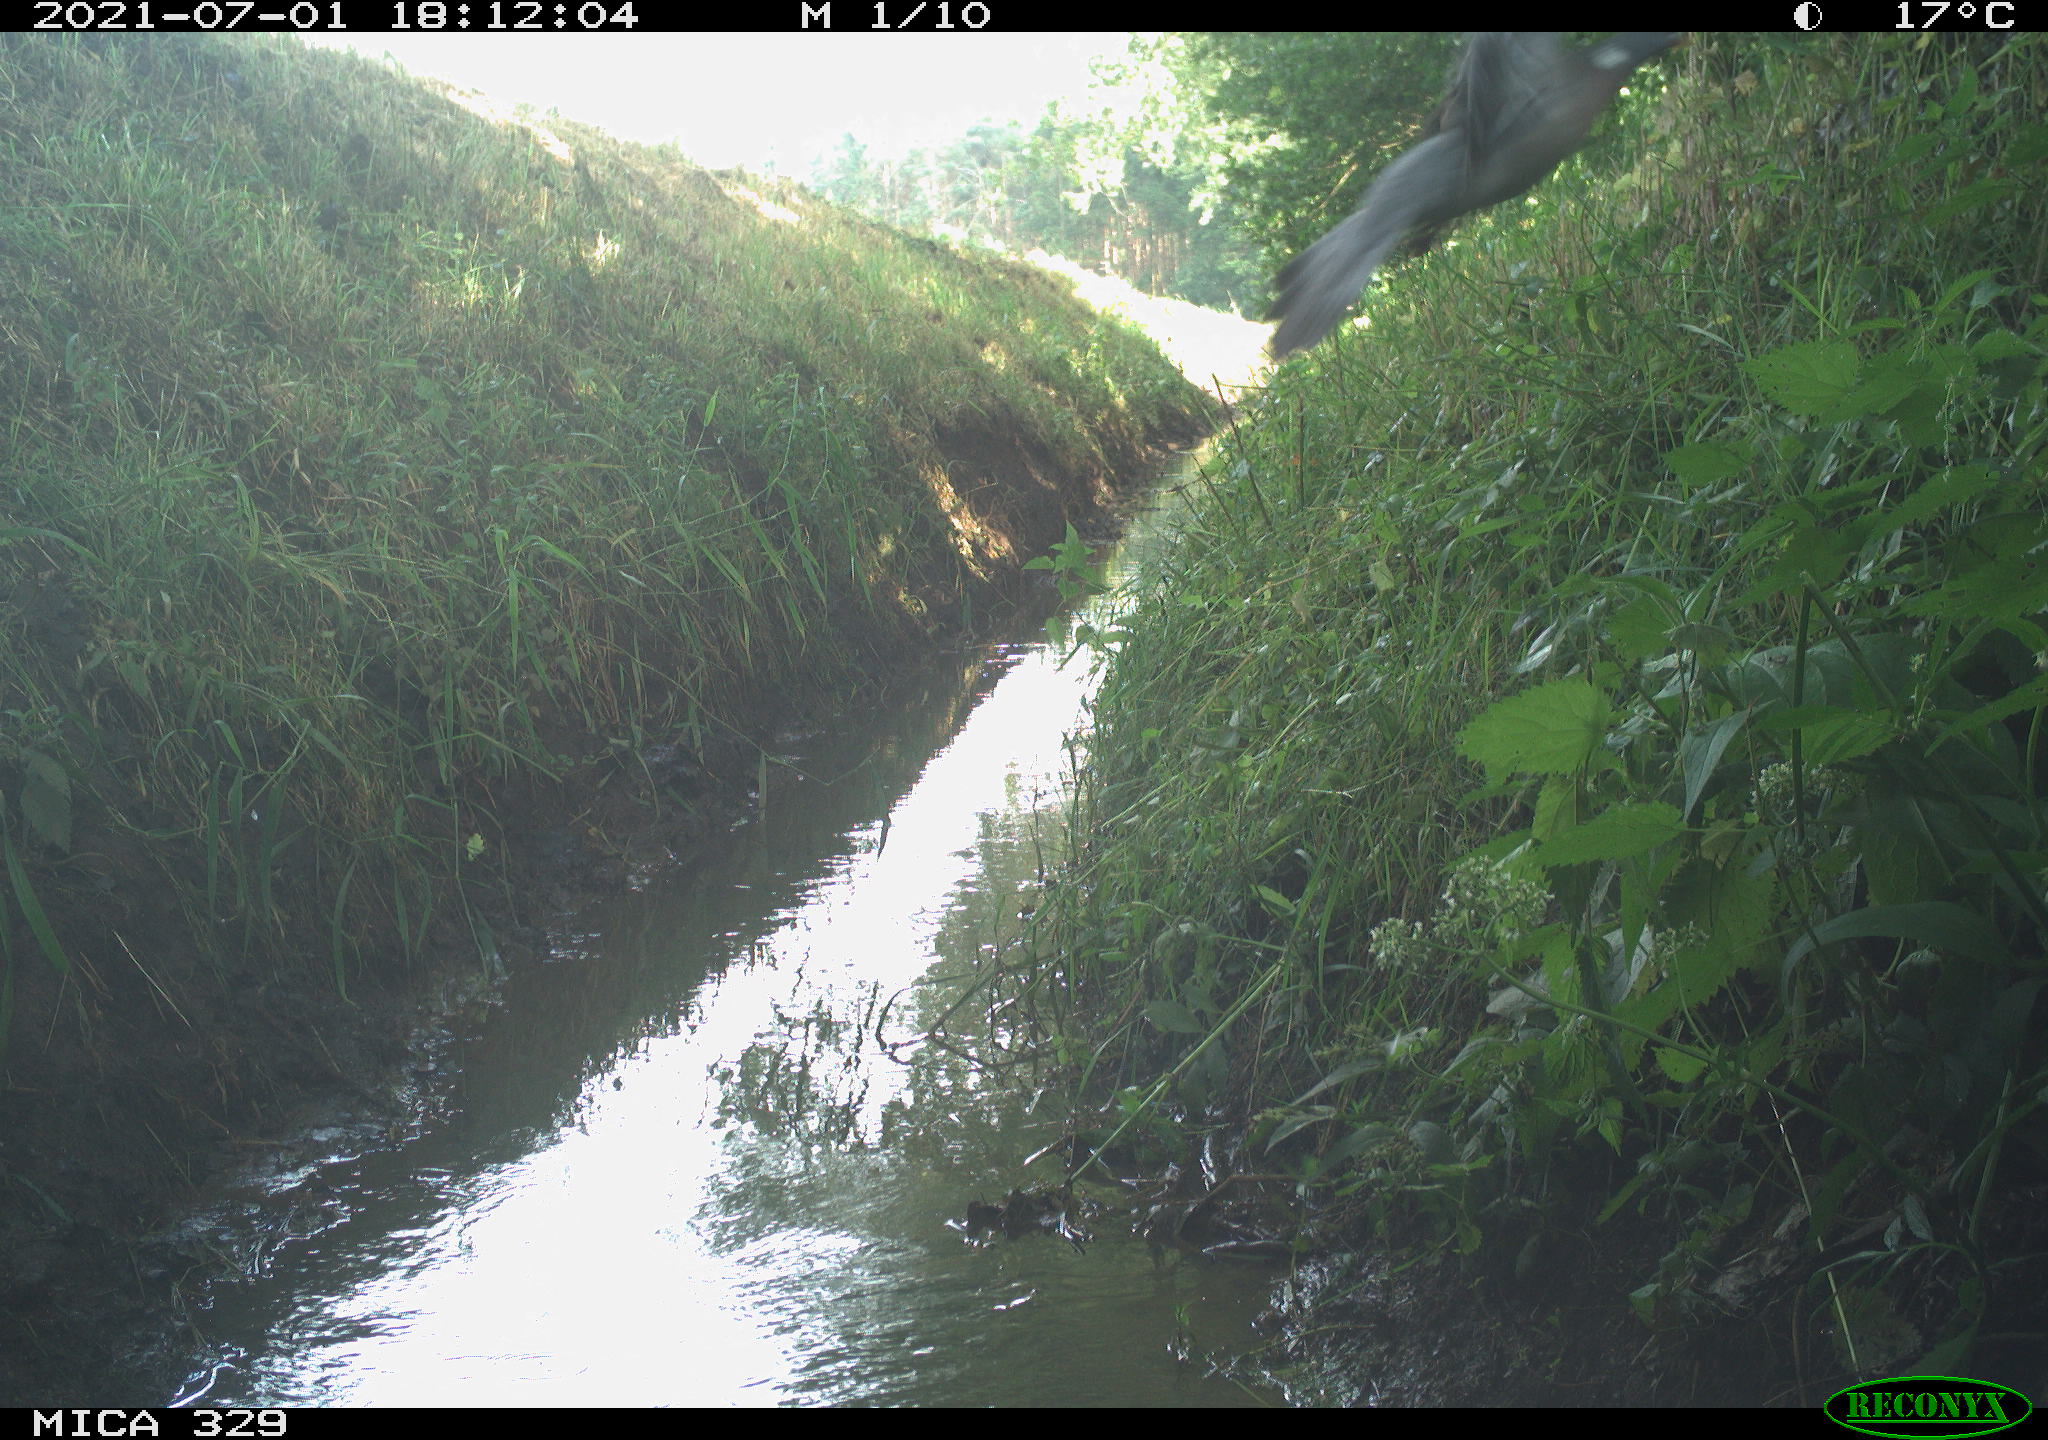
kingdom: Animalia
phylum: Chordata
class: Aves
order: Columbiformes
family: Columbidae
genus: Columba
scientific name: Columba palumbus
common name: Common wood pigeon
